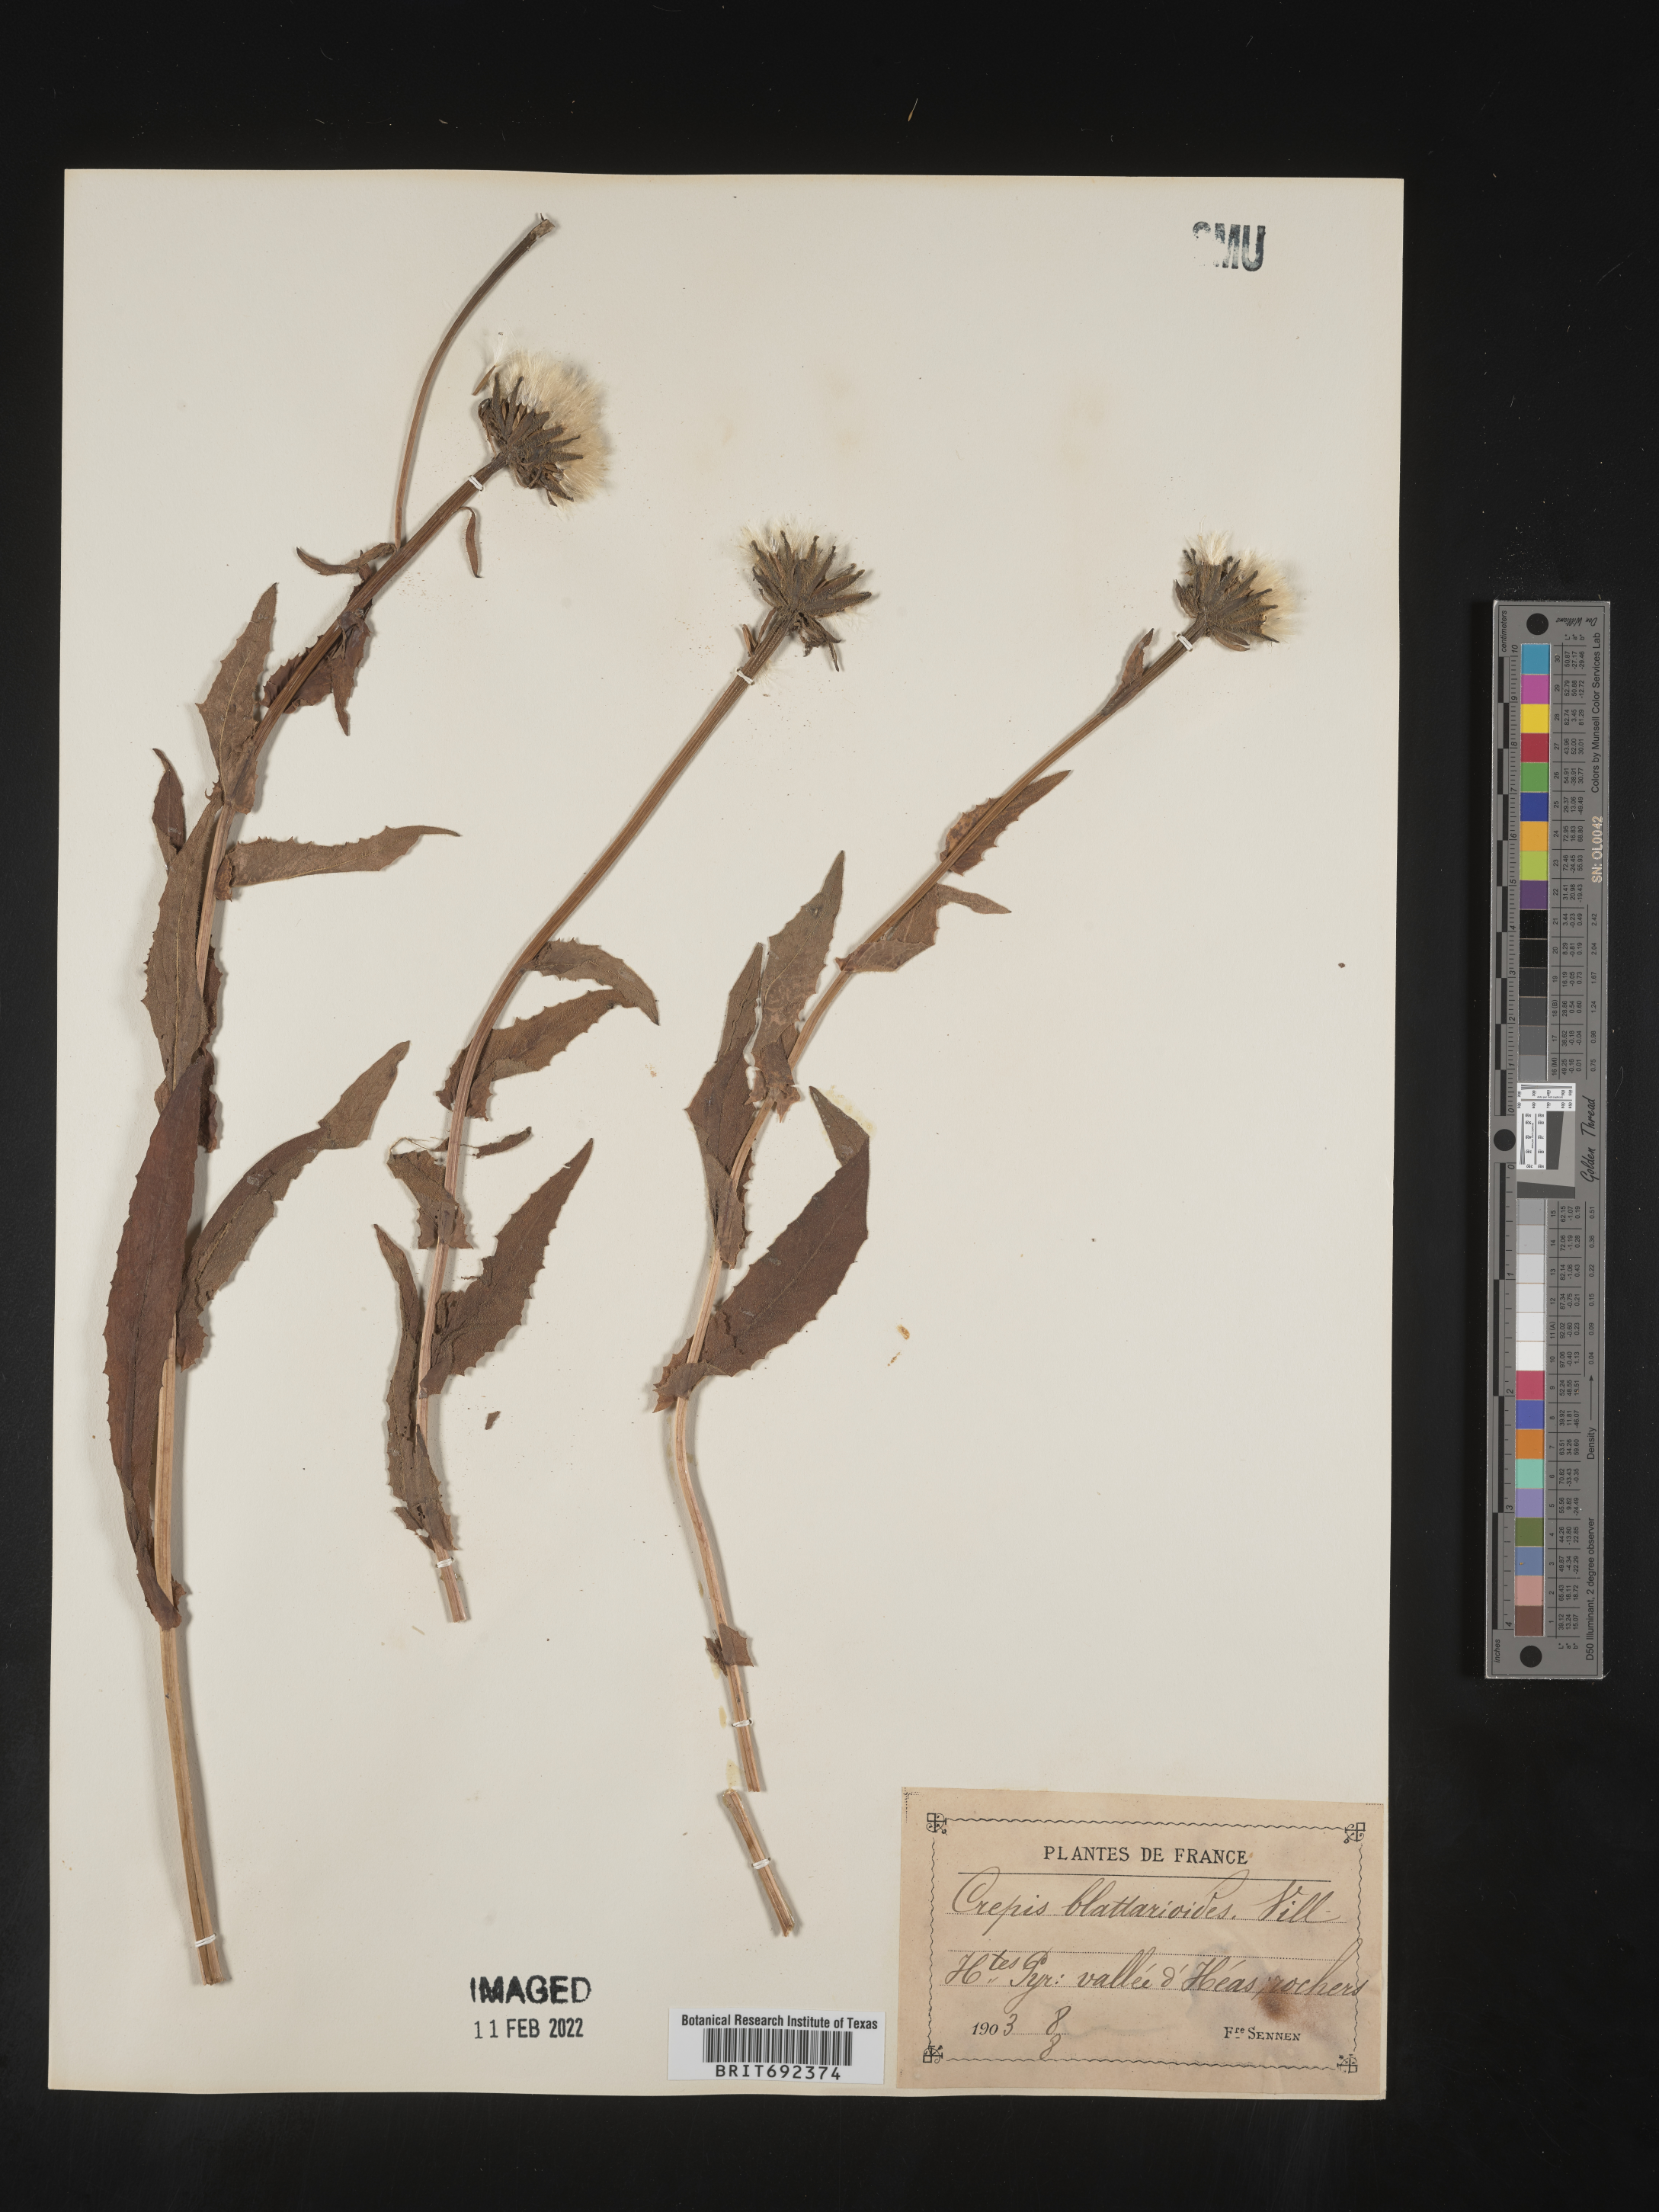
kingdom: Plantae
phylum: Tracheophyta
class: Magnoliopsida
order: Asterales
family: Asteraceae
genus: Crepis
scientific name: Crepis
